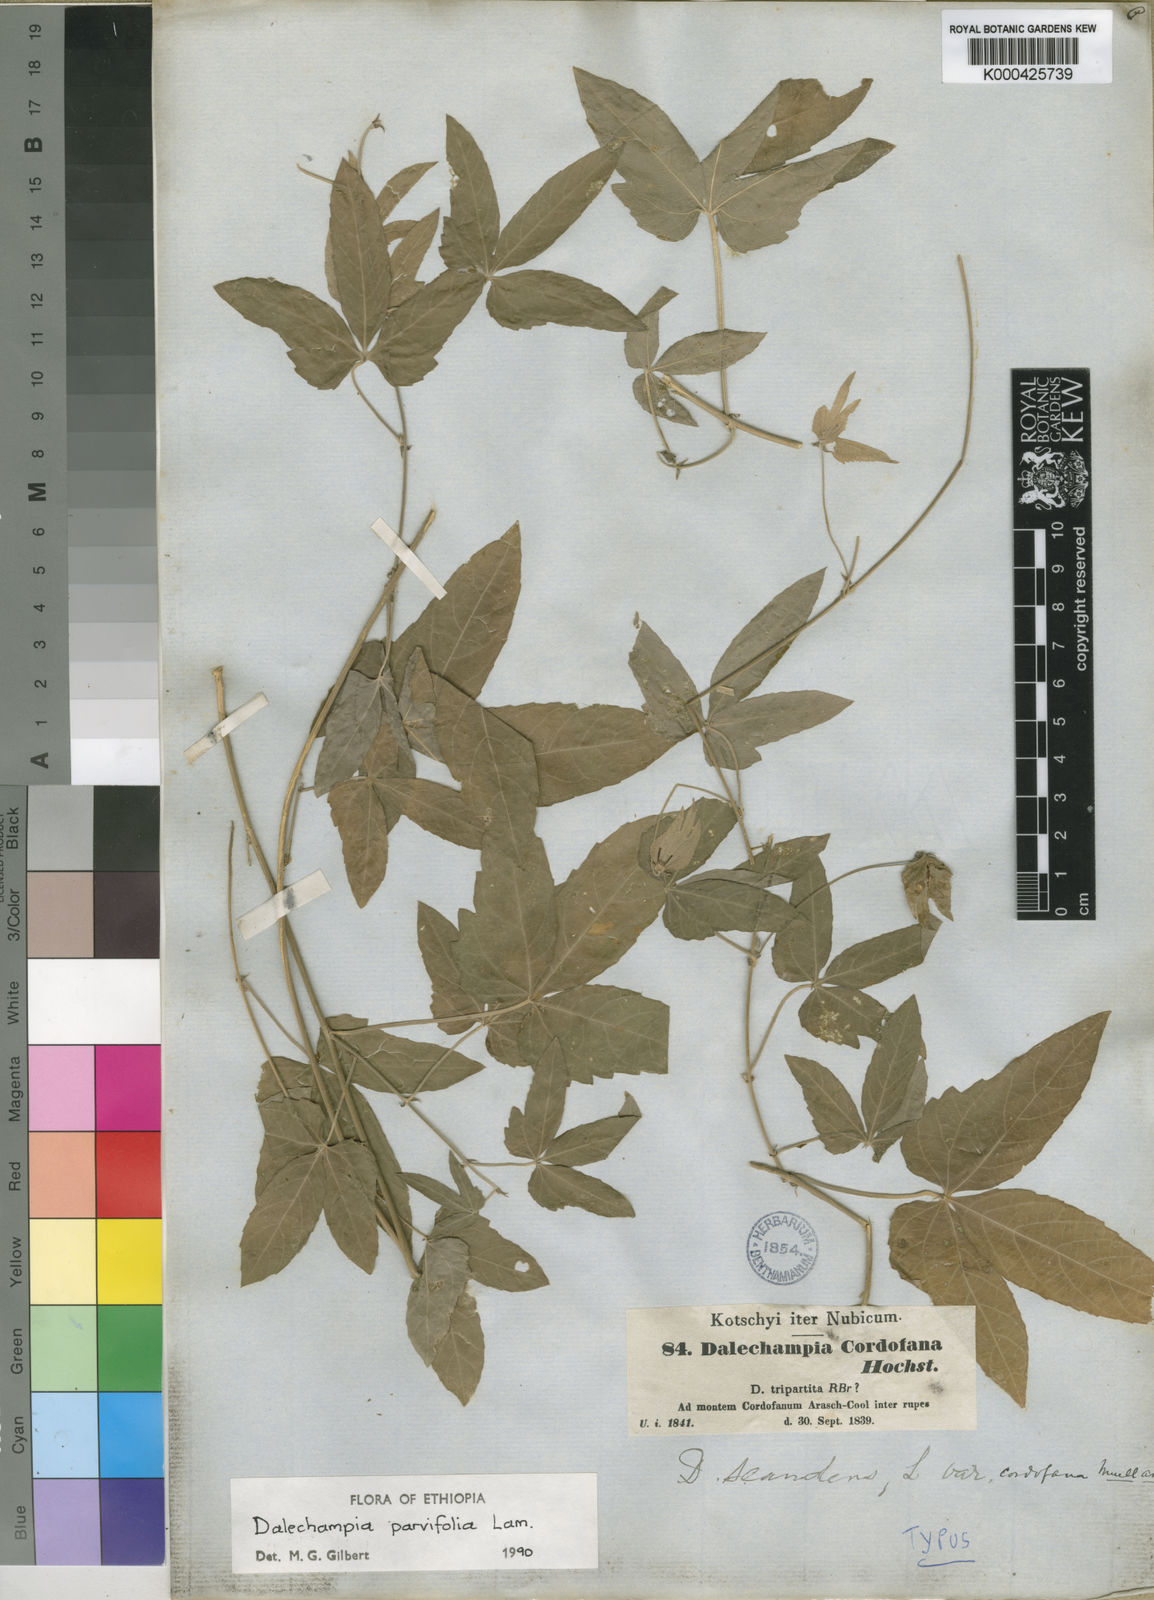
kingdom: Plantae
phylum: Tracheophyta
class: Magnoliopsida
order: Malpighiales
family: Euphorbiaceae
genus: Dalechampia
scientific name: Dalechampia scandens
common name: Spurgecreeper
